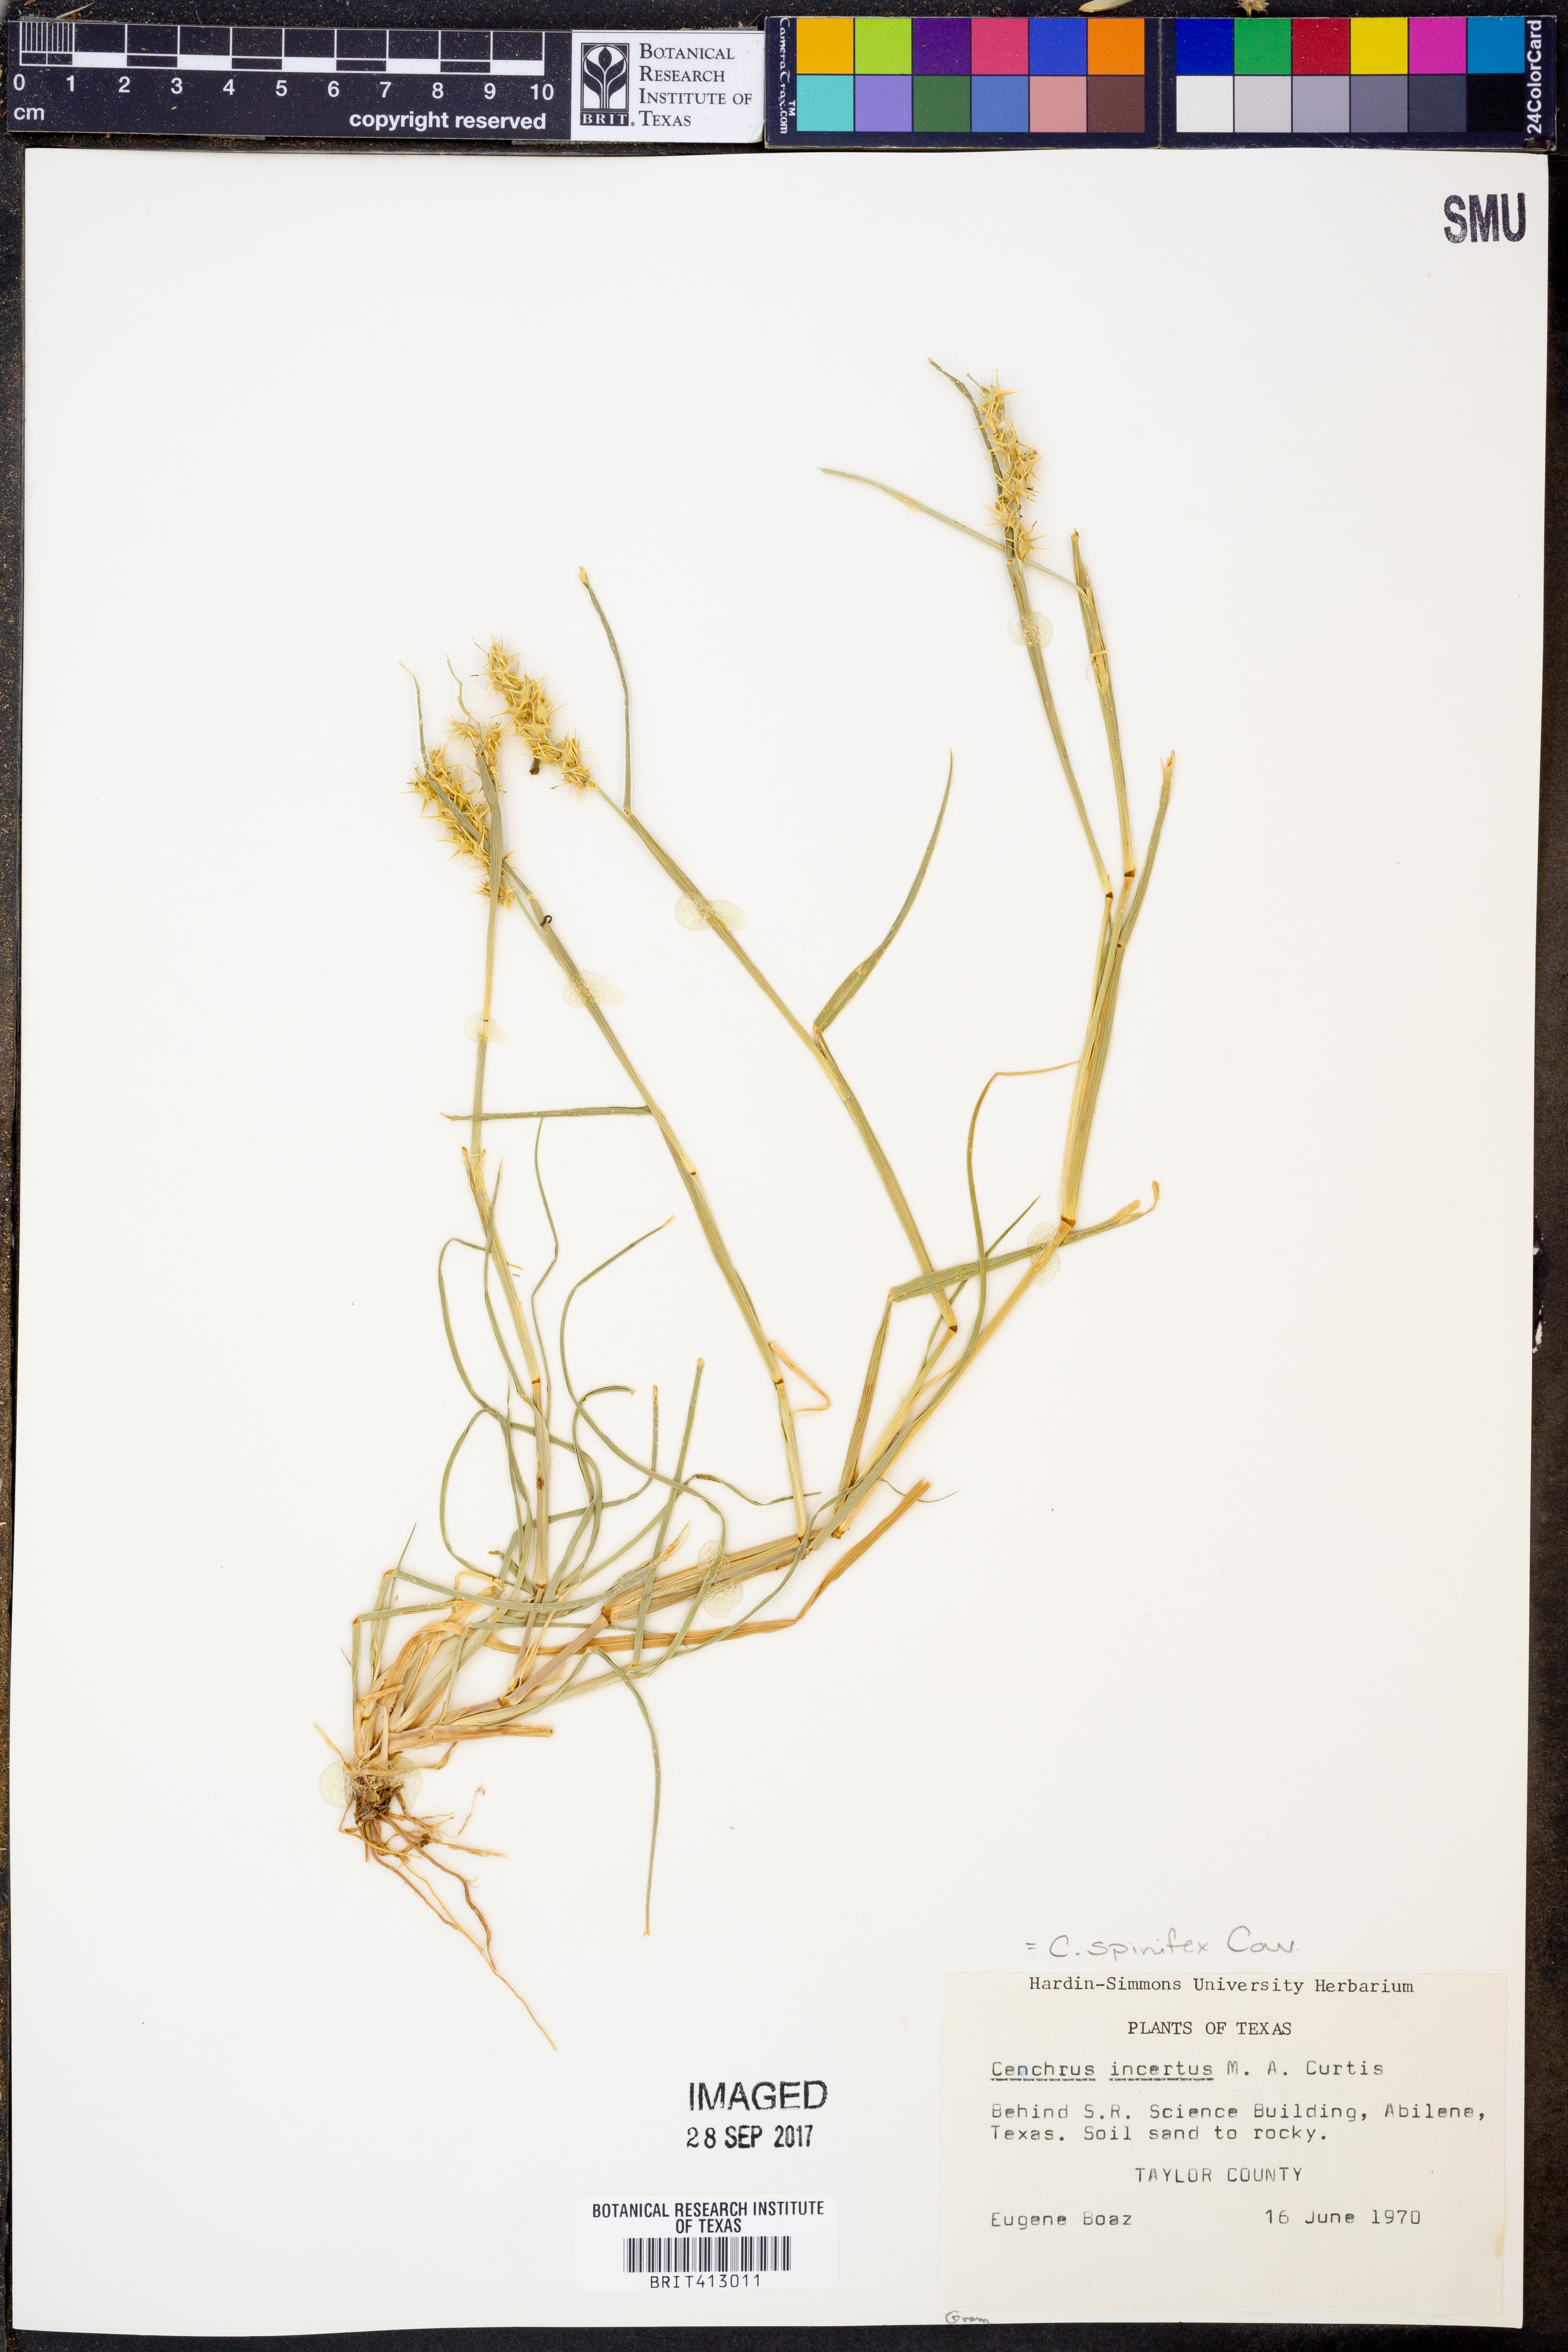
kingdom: Plantae
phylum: Tracheophyta
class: Liliopsida
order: Poales
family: Poaceae
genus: Cenchrus
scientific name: Cenchrus spinifex
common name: Coast sandbur
